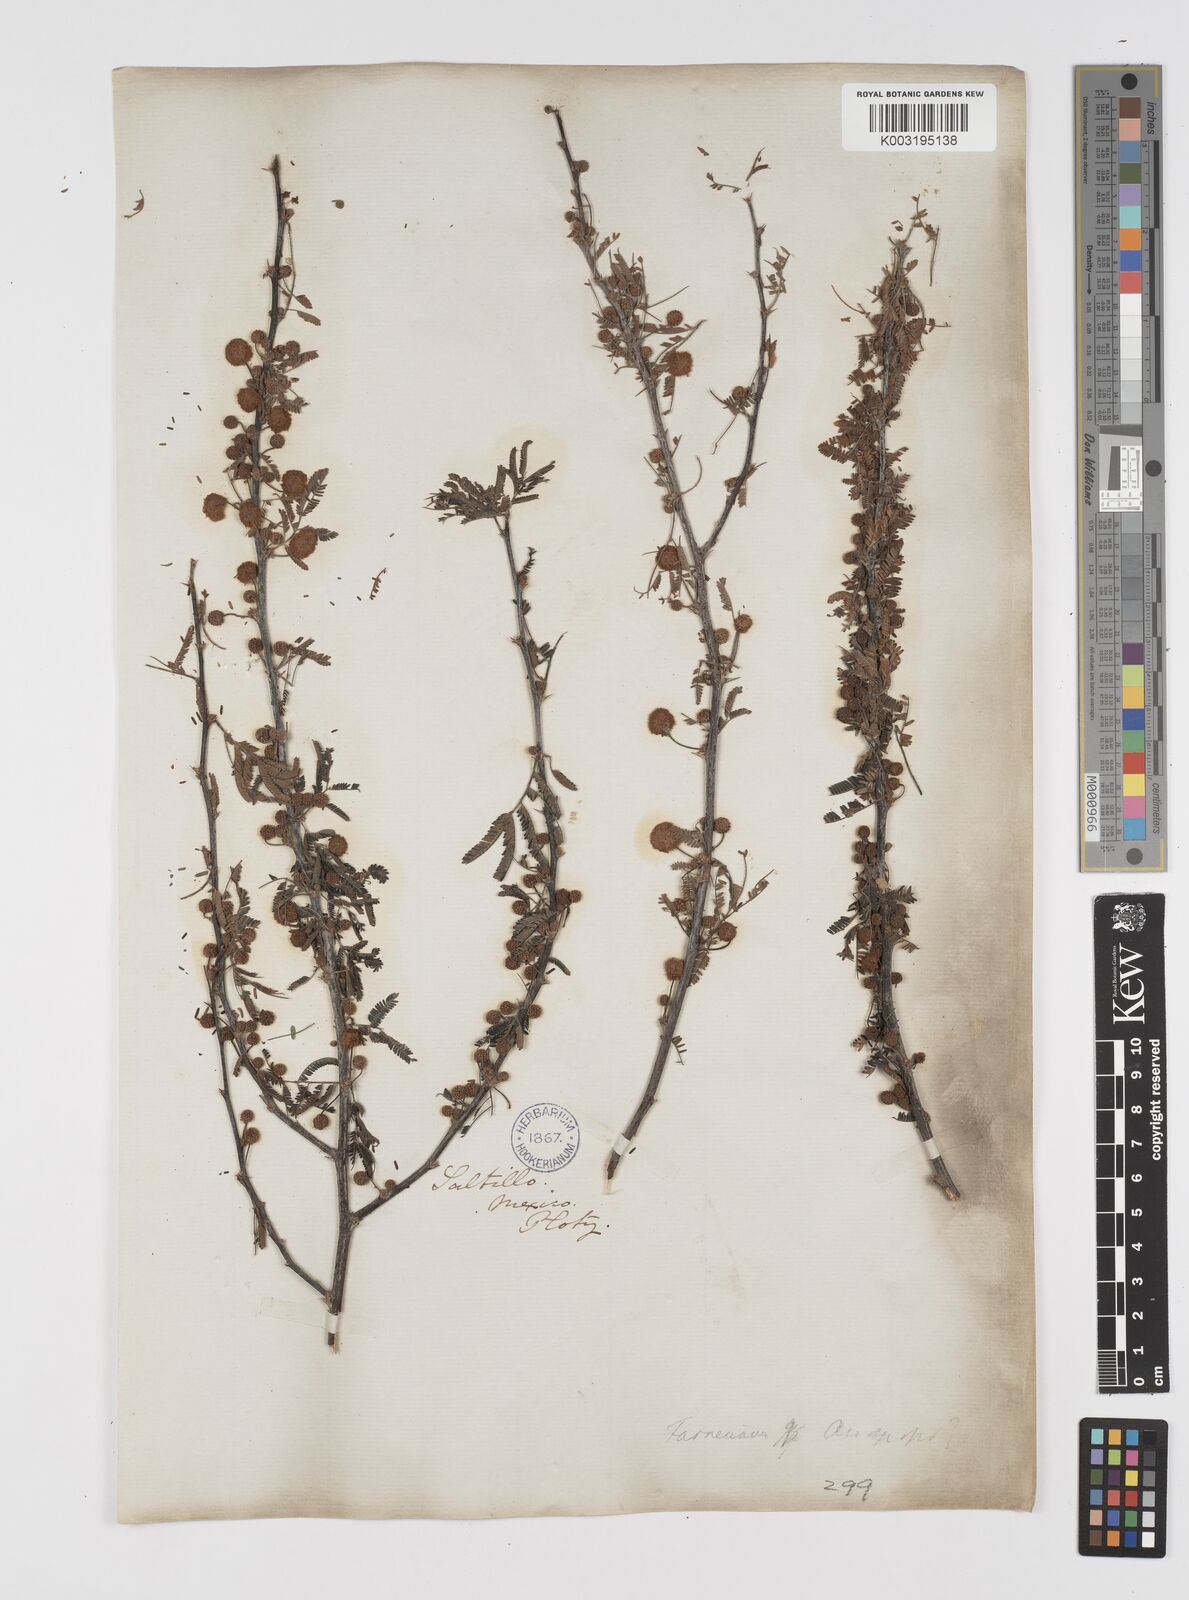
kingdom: Plantae
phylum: Tracheophyta
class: Magnoliopsida
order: Fabales
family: Fabaceae
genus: Vachellia
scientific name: Vachellia farnesiana
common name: Sweet acacia
